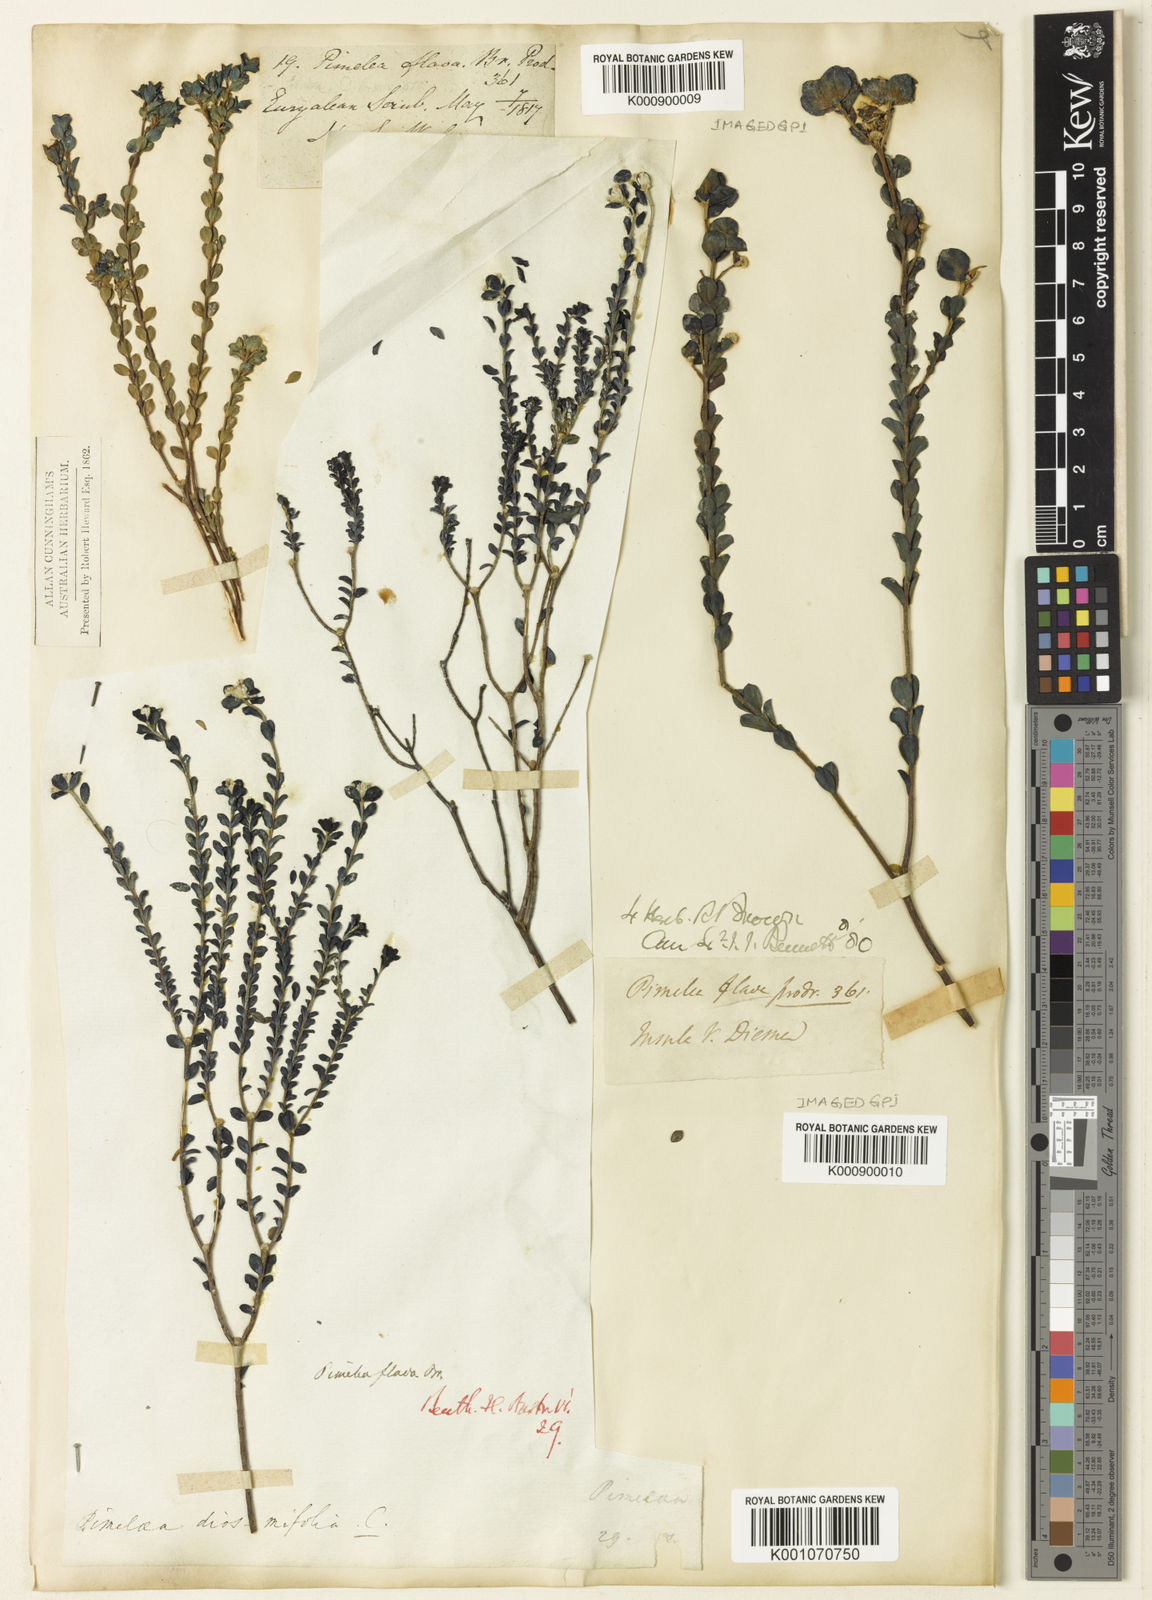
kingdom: Plantae
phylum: Tracheophyta
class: Magnoliopsida
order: Malvales
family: Thymelaeaceae
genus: Pimelea
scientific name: Pimelea flava
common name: Yellow riceflower
